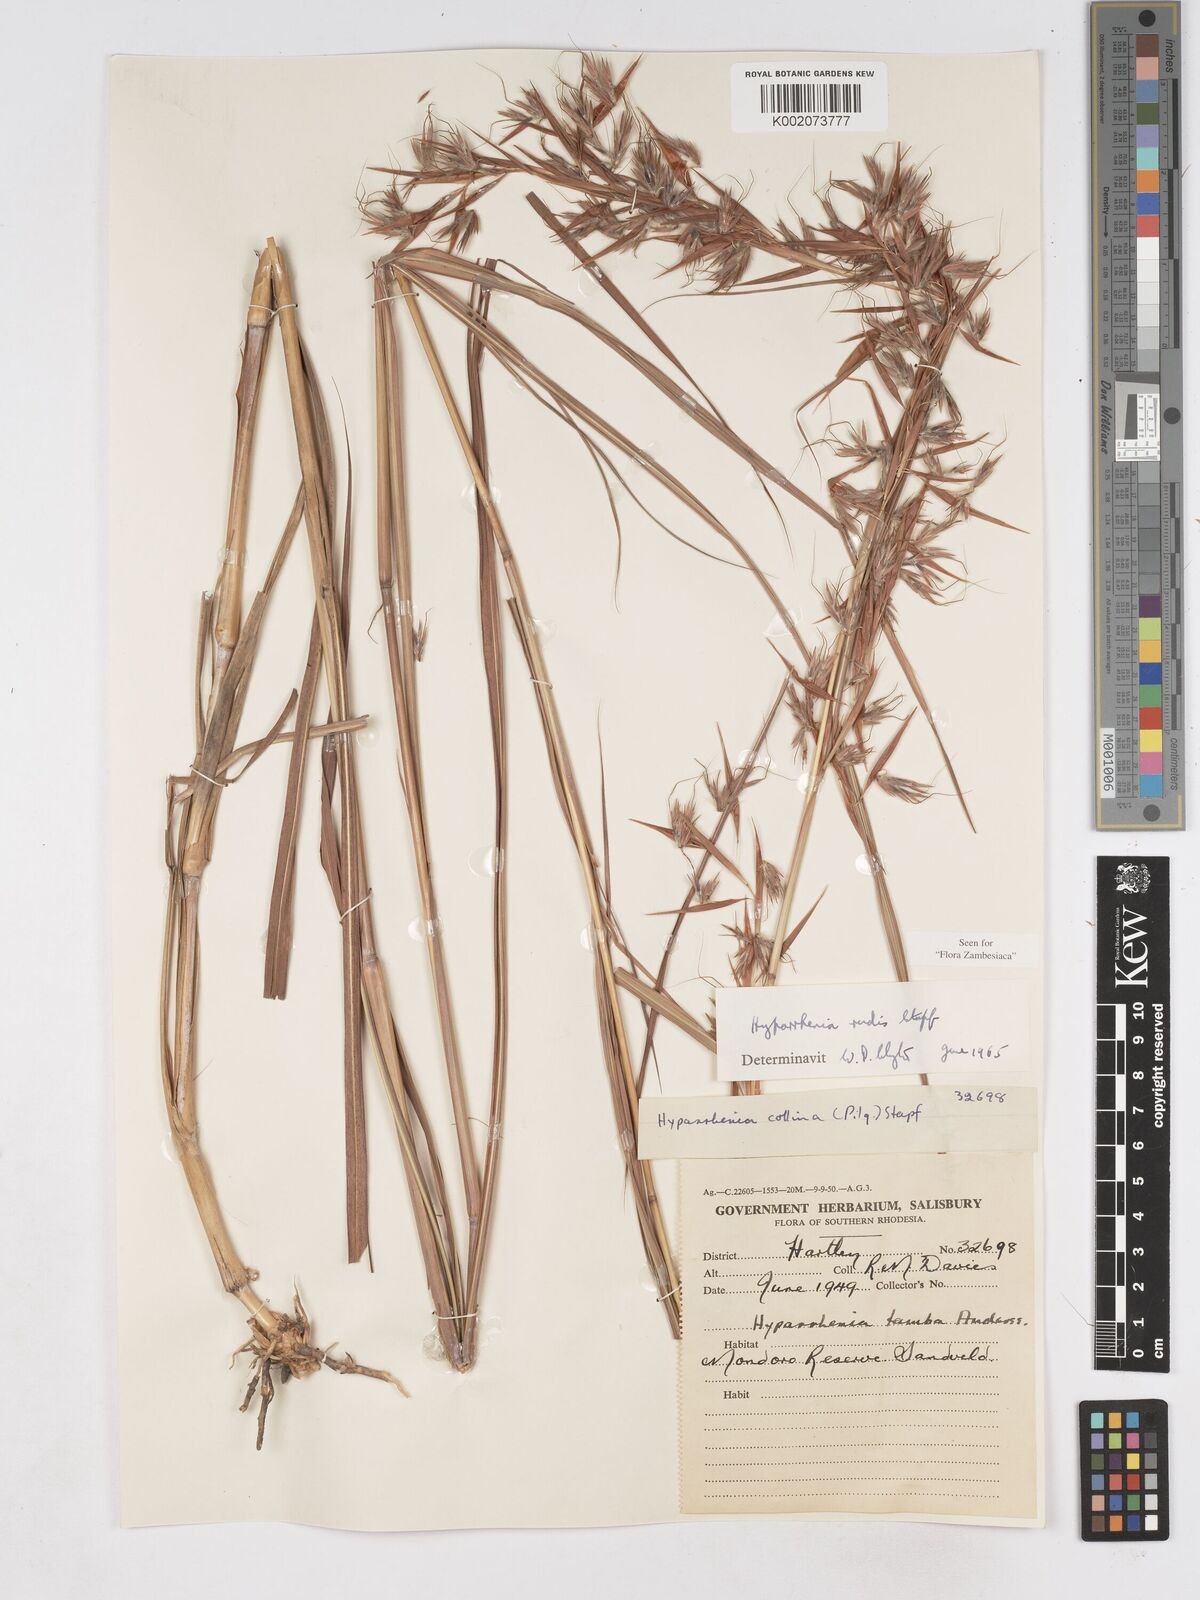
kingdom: Plantae
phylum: Tracheophyta
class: Liliopsida
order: Poales
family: Poaceae
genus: Hyparrhenia
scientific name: Hyparrhenia rudis
